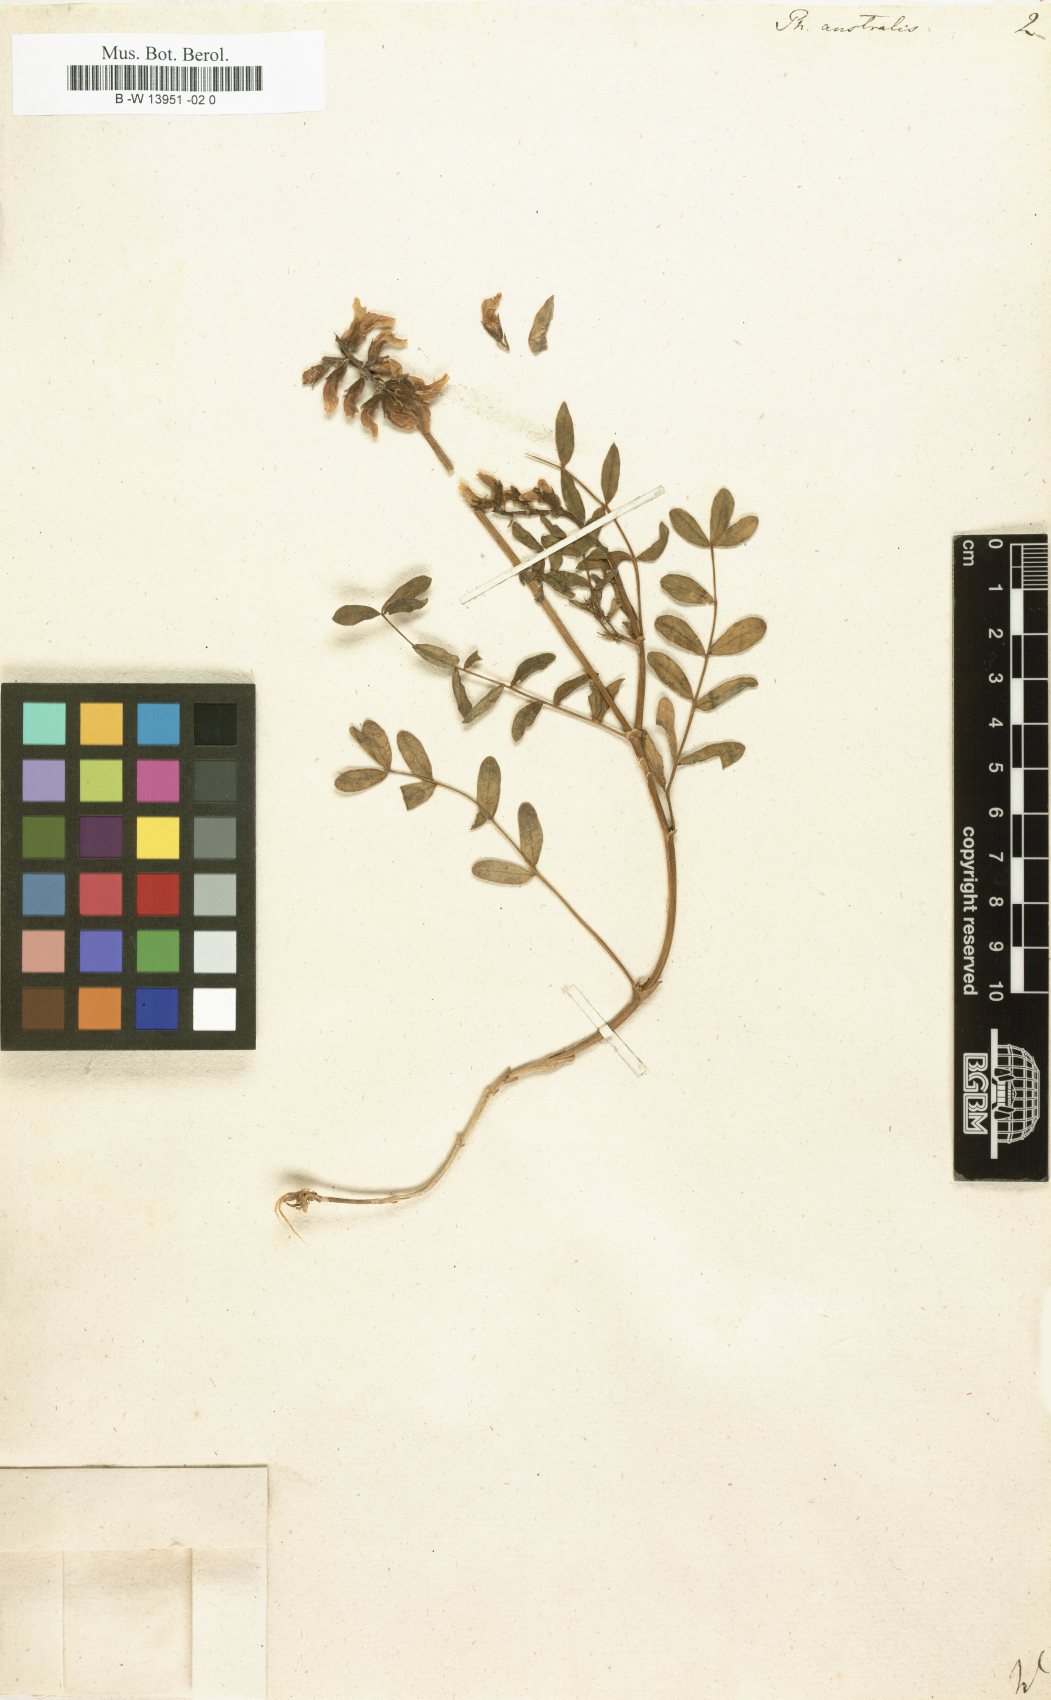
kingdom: Plantae
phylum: Tracheophyta
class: Magnoliopsida
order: Fabales
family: Fabaceae
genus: Astragalus
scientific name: Astragalus
